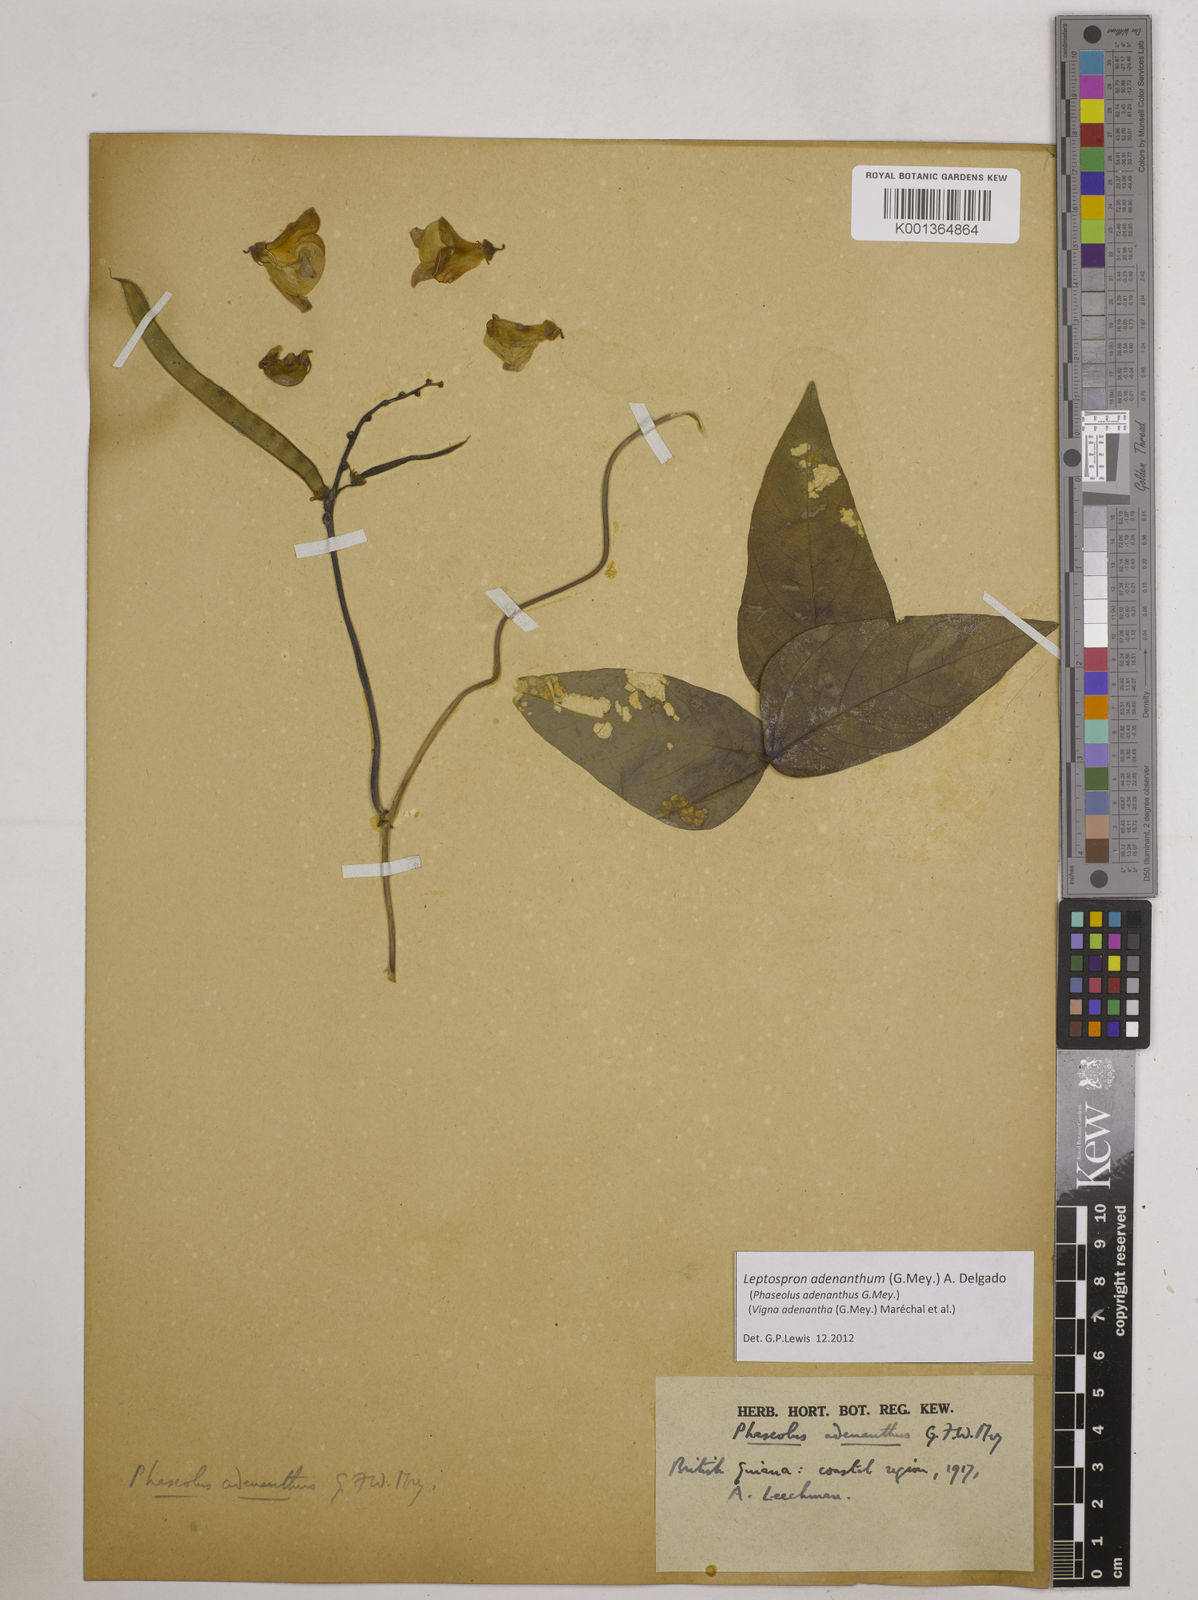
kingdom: Plantae
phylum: Tracheophyta
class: Magnoliopsida
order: Fabales
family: Fabaceae
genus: Leptospron
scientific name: Leptospron adenanthum
